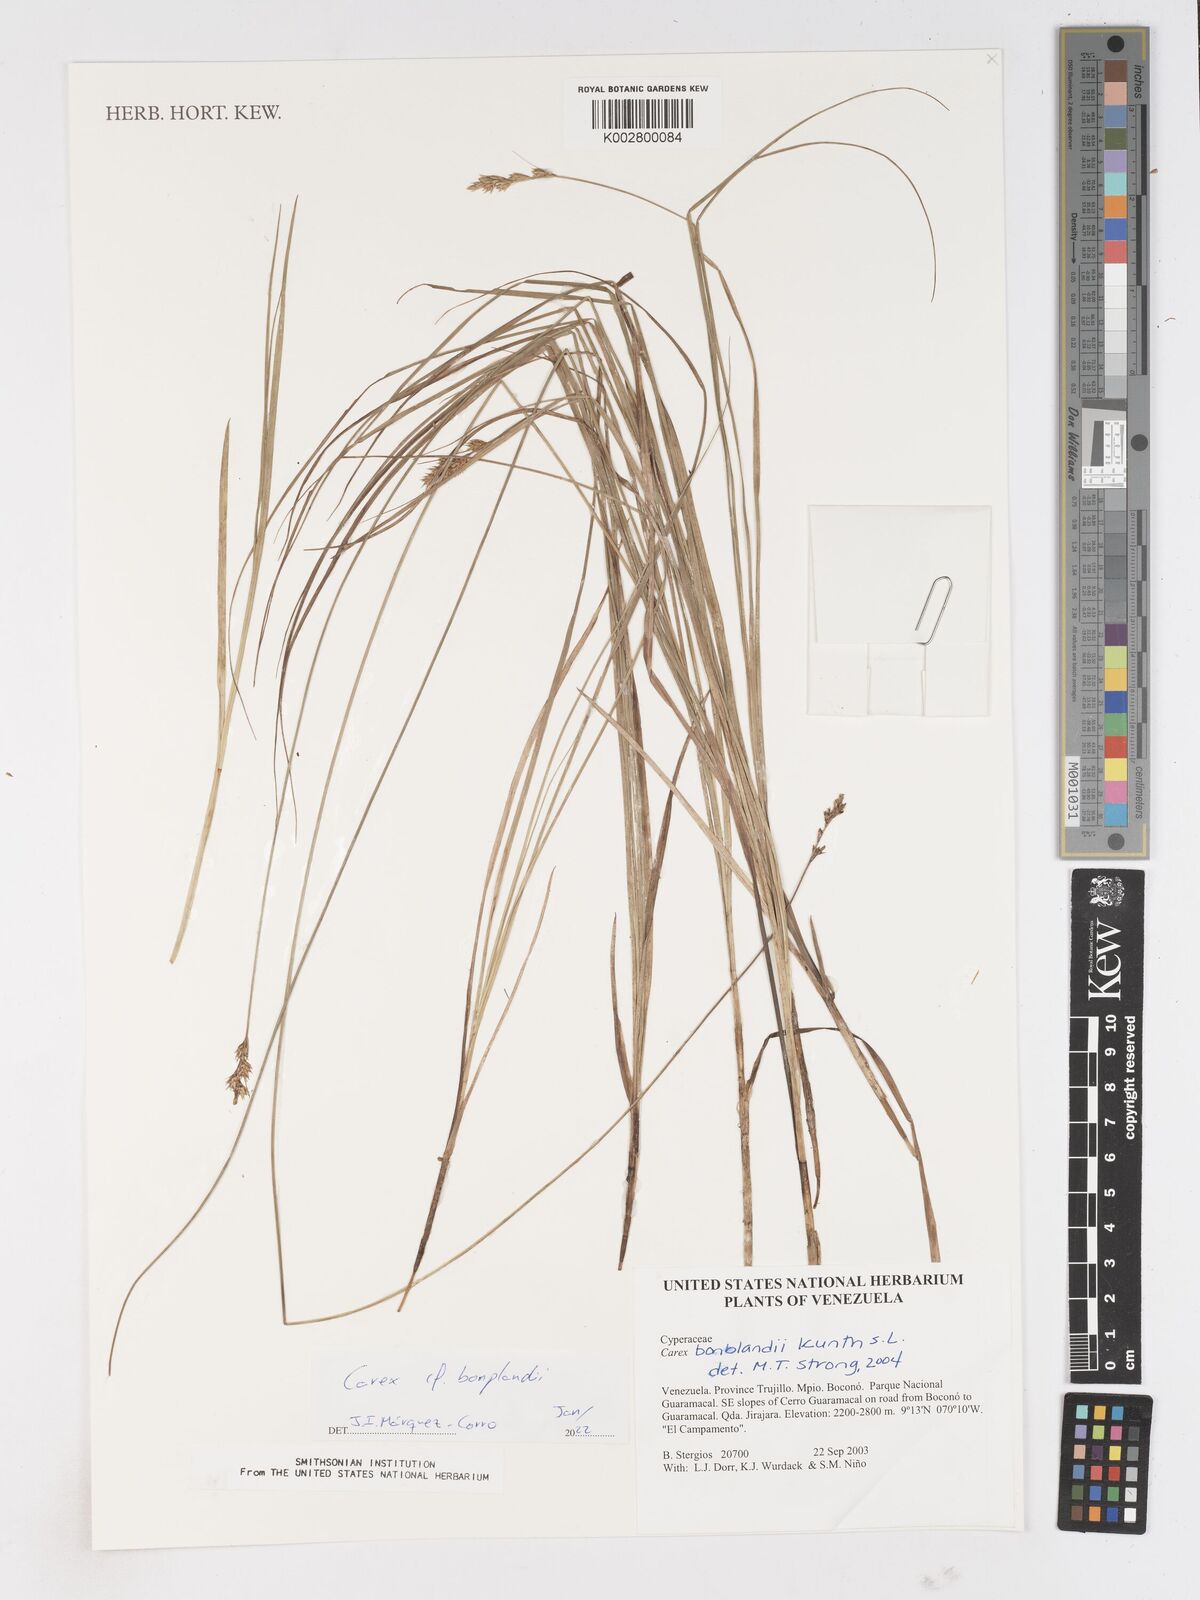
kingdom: Plantae
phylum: Tracheophyta
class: Liliopsida
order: Poales
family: Cyperaceae
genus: Carex
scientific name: Carex bonplandii
